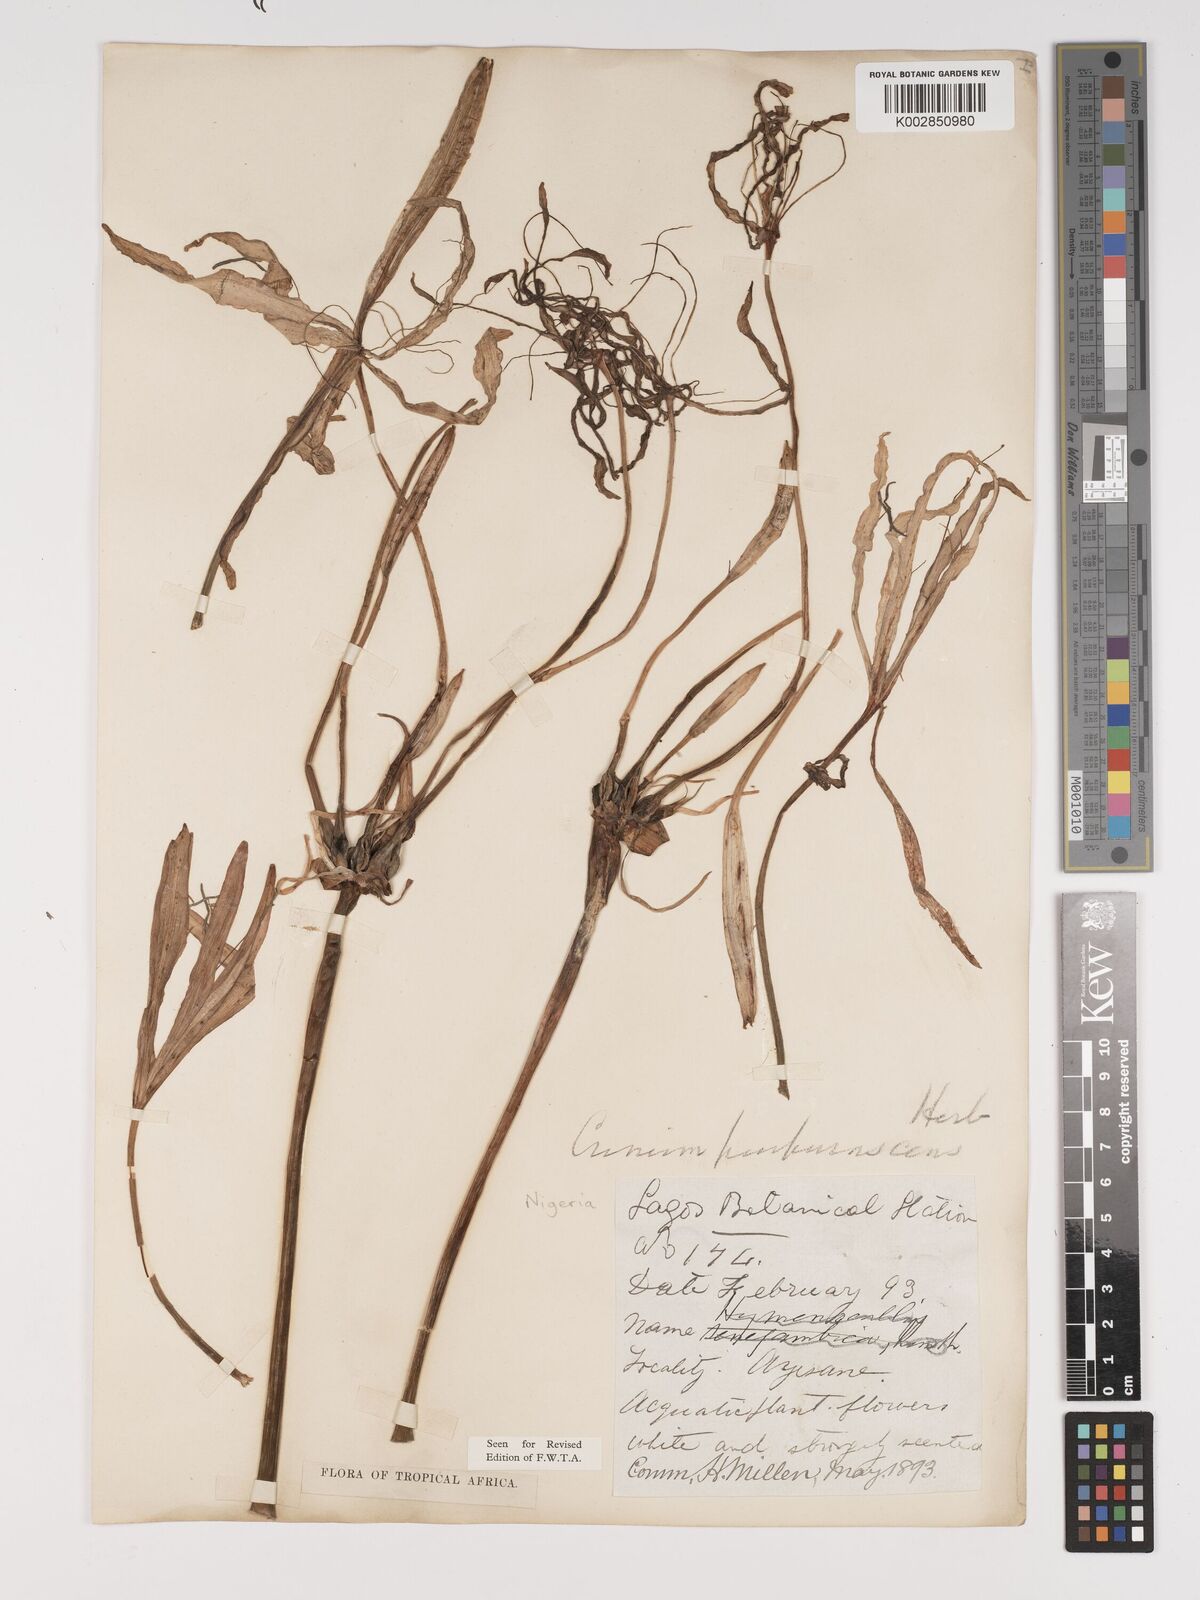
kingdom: Plantae
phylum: Tracheophyta
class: Liliopsida
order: Asparagales
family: Amaryllidaceae
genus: Crinum
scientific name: Crinum purpurascens
